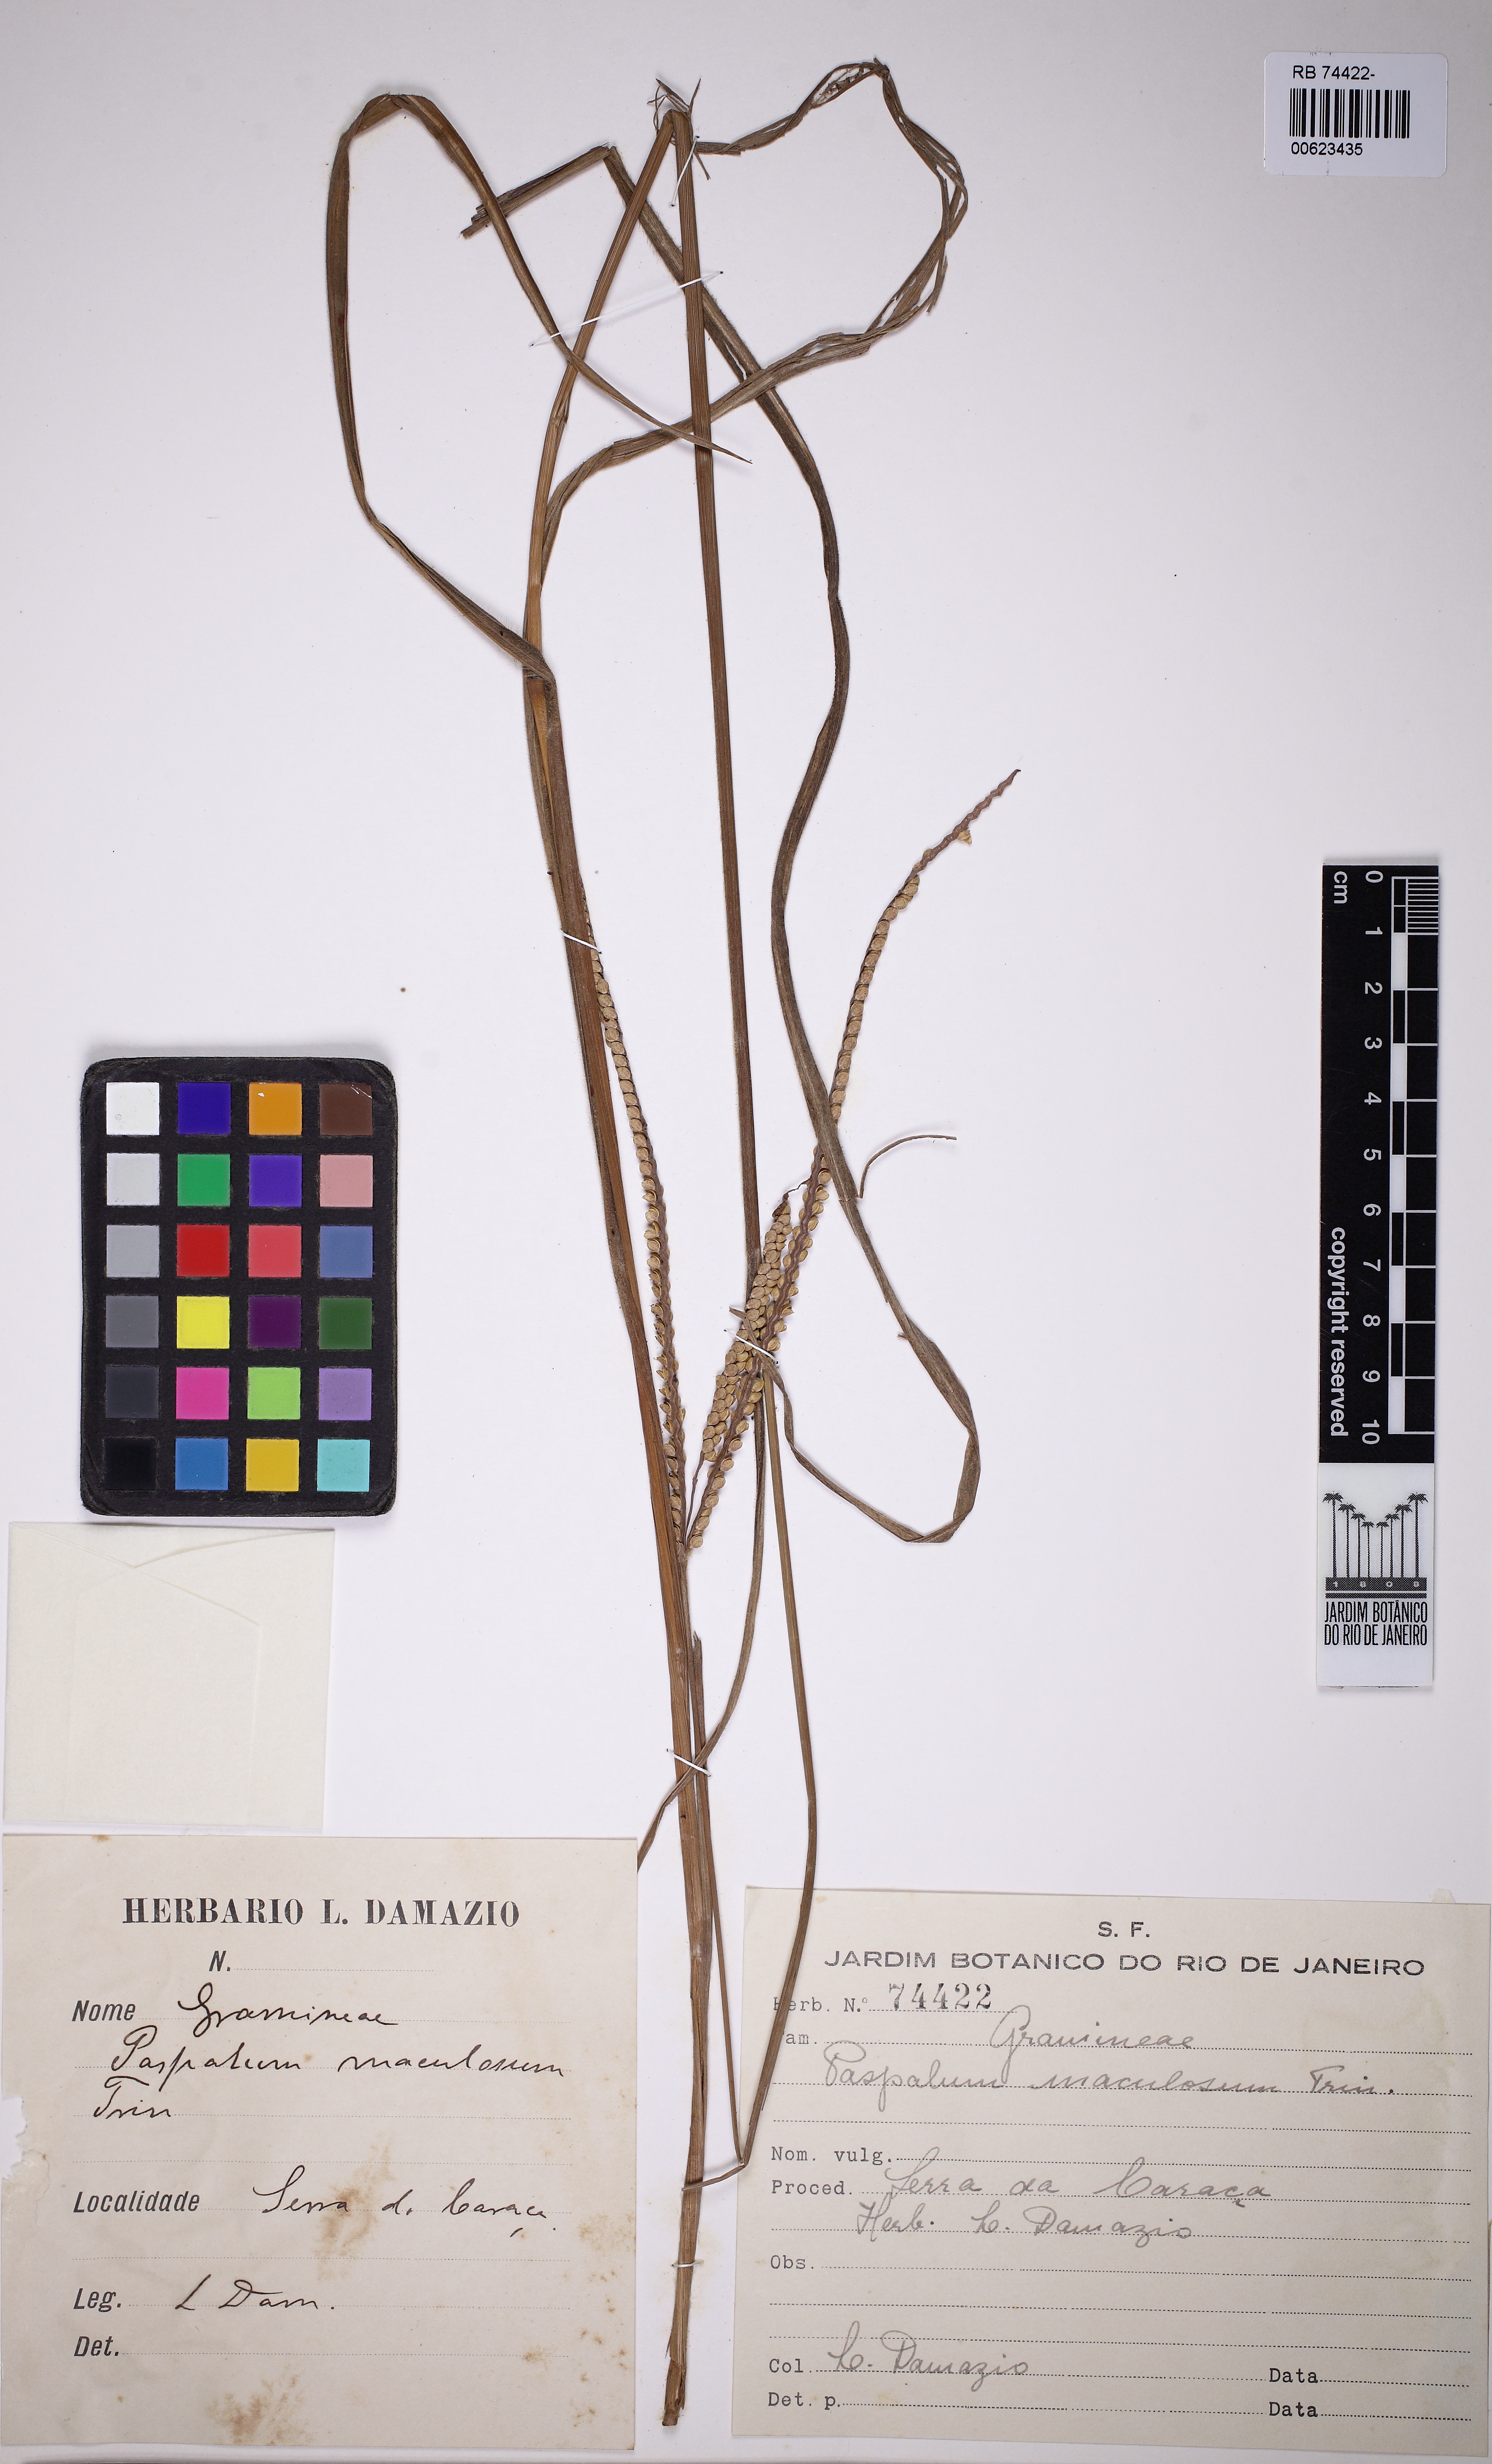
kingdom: Plantae
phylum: Tracheophyta
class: Liliopsida
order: Poales
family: Poaceae
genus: Paspalum
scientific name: Paspalum maculosum
